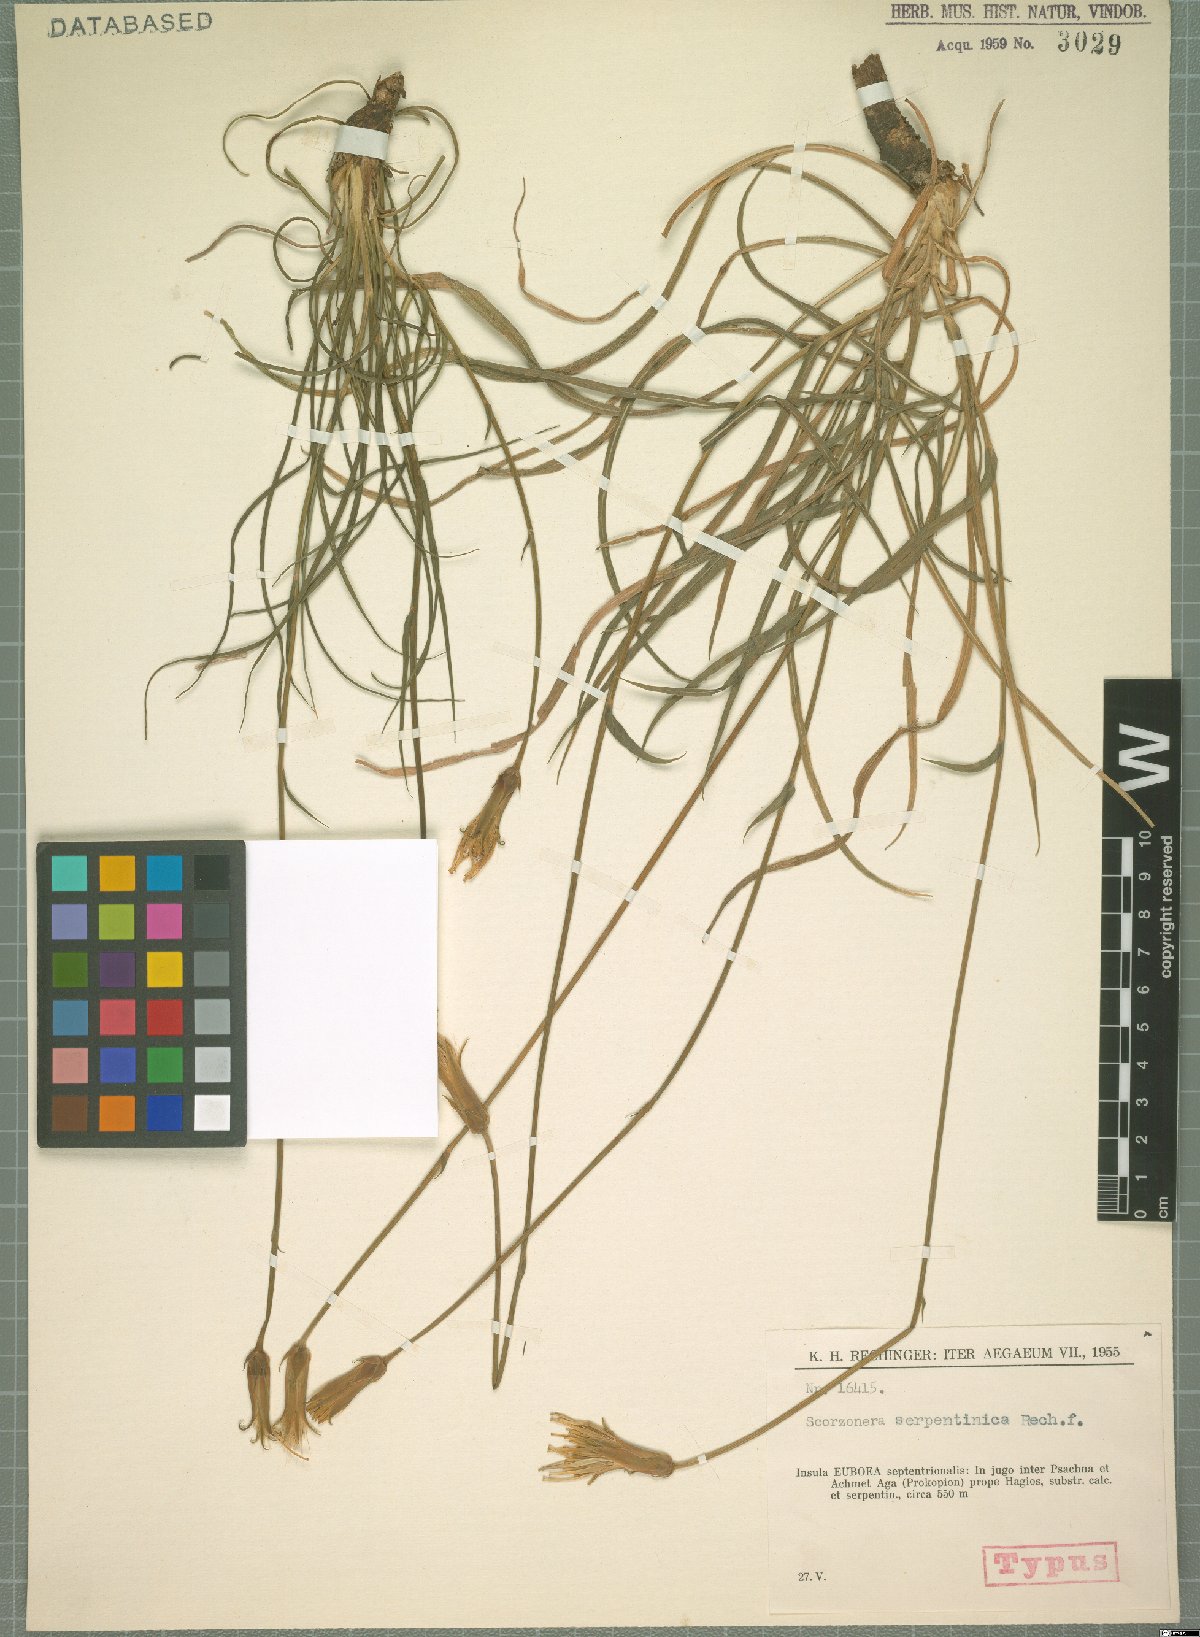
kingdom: Plantae
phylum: Tracheophyta
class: Magnoliopsida
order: Asterales
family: Asteraceae
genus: Pseudopodospermum
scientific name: Pseudopodospermum crocifolium
